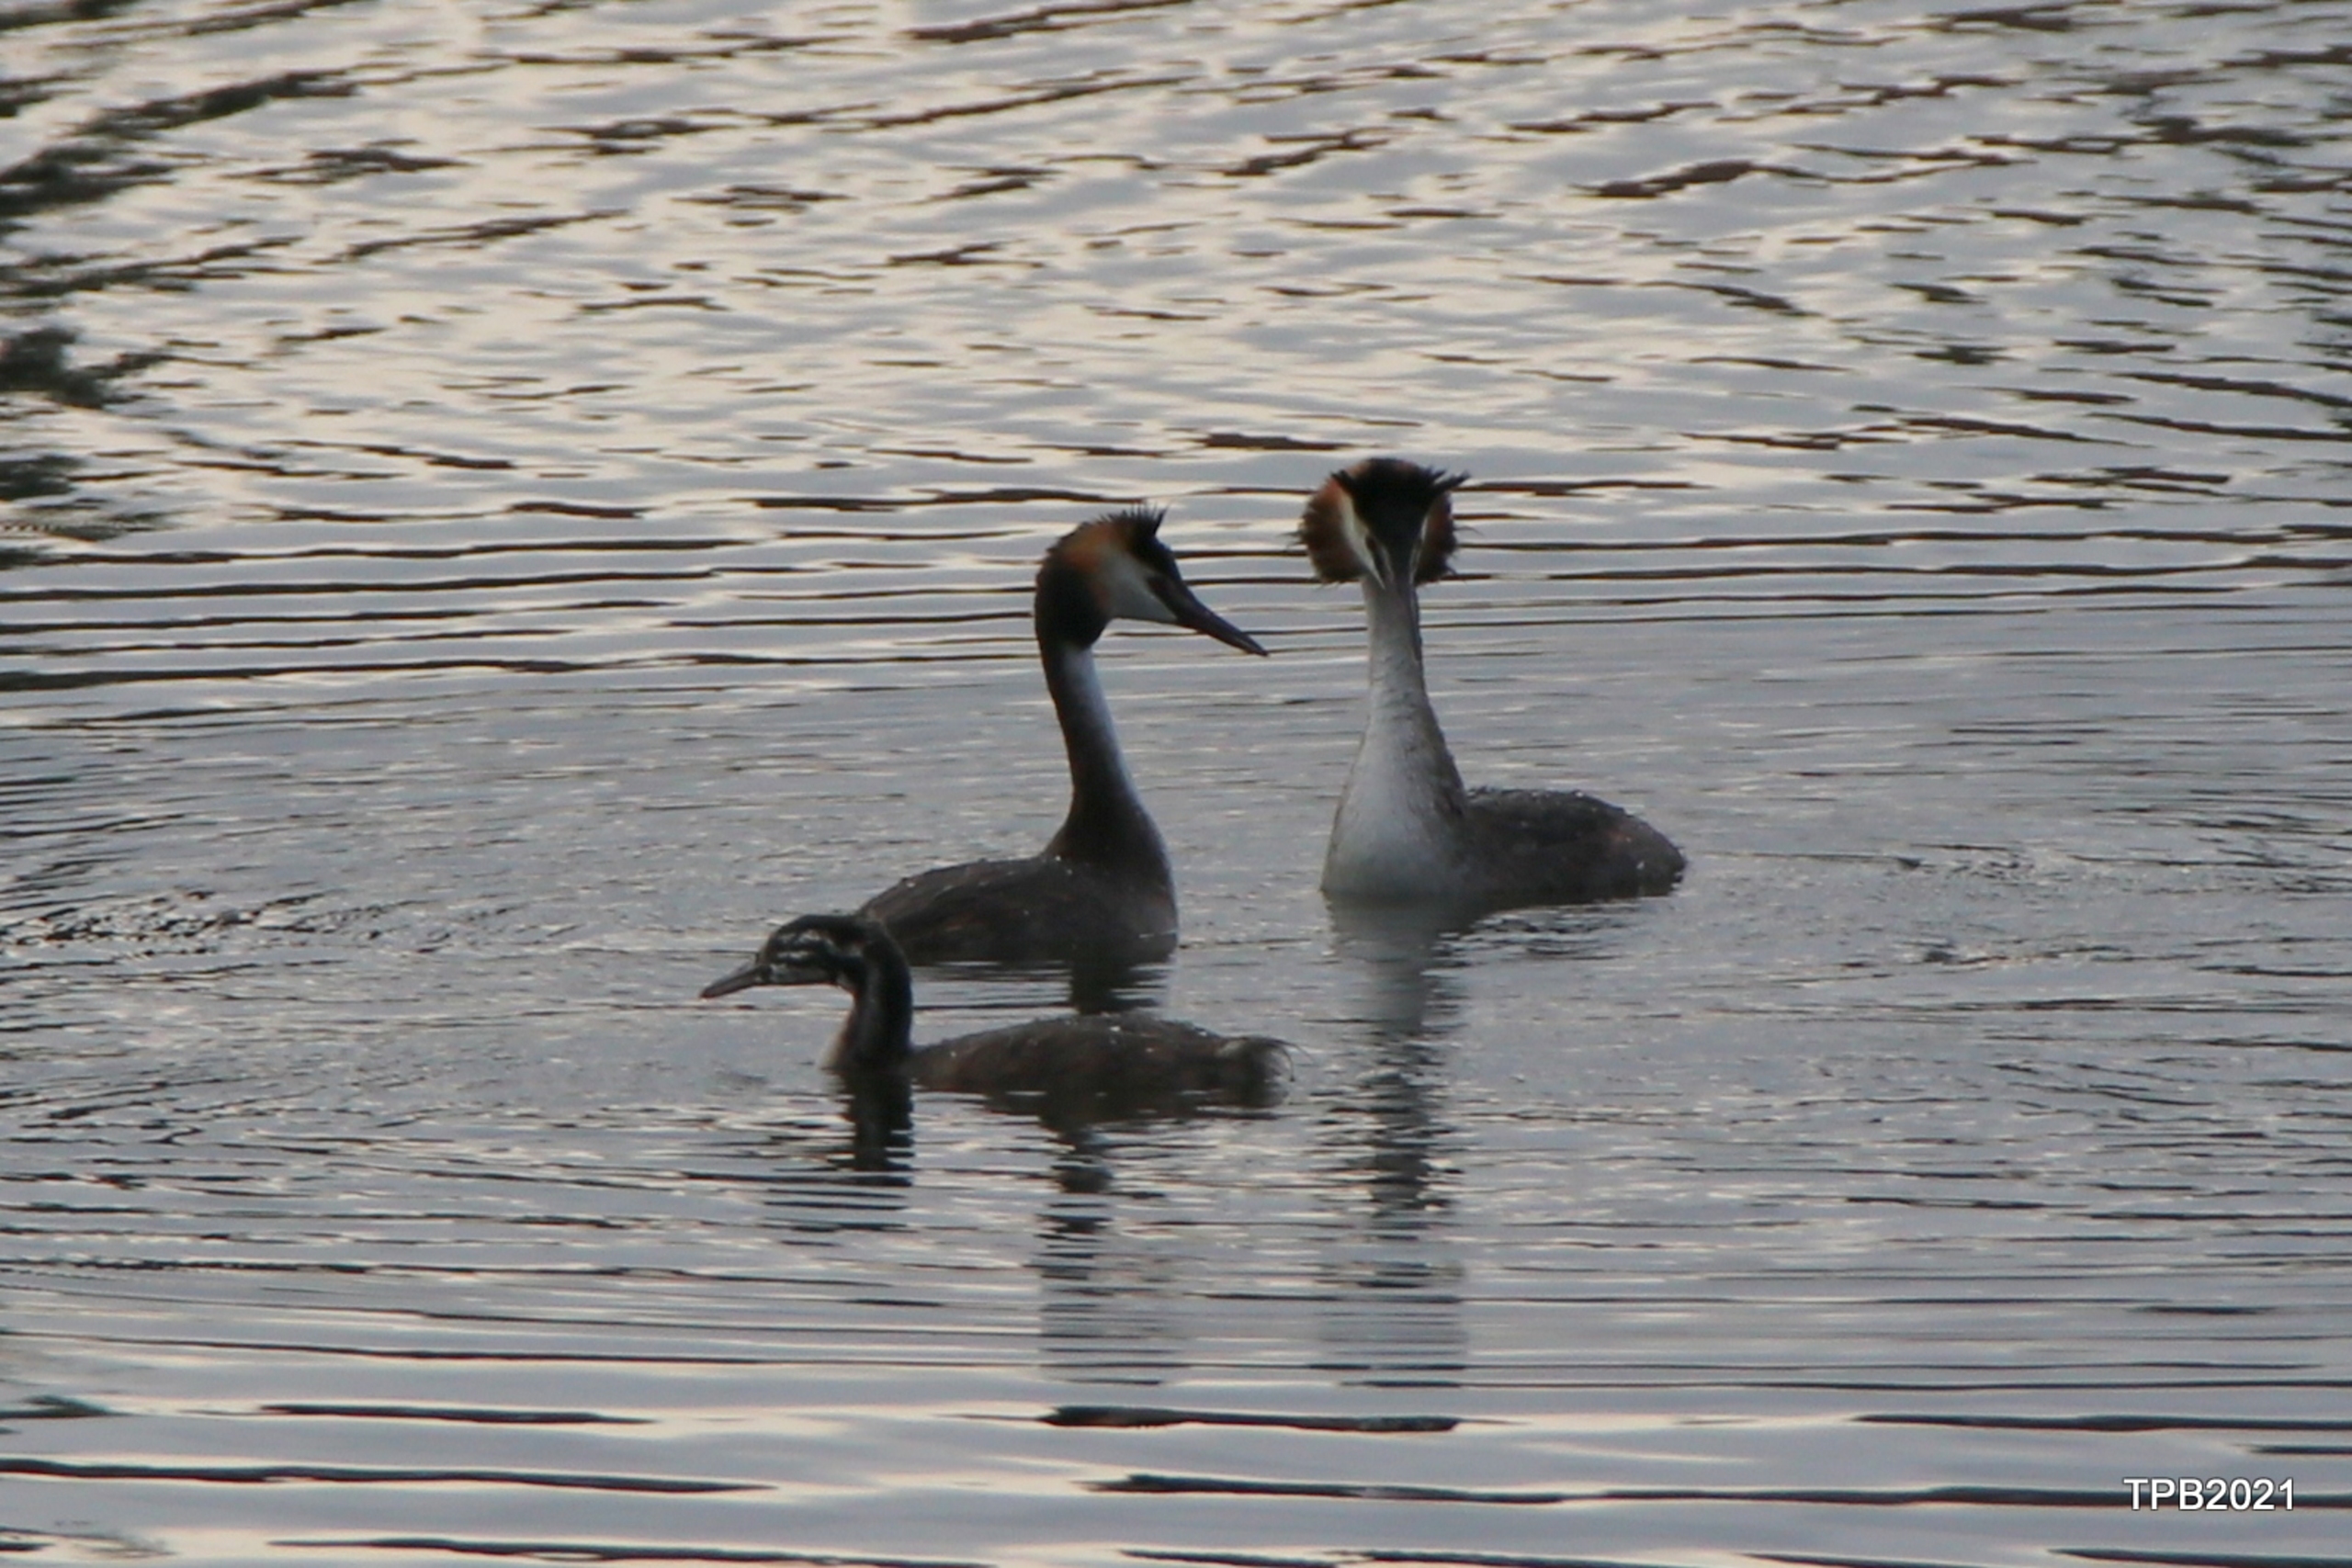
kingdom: Animalia
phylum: Chordata
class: Aves
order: Podicipediformes
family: Podicipedidae
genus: Podiceps
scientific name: Podiceps cristatus
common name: Toppet lappedykker
